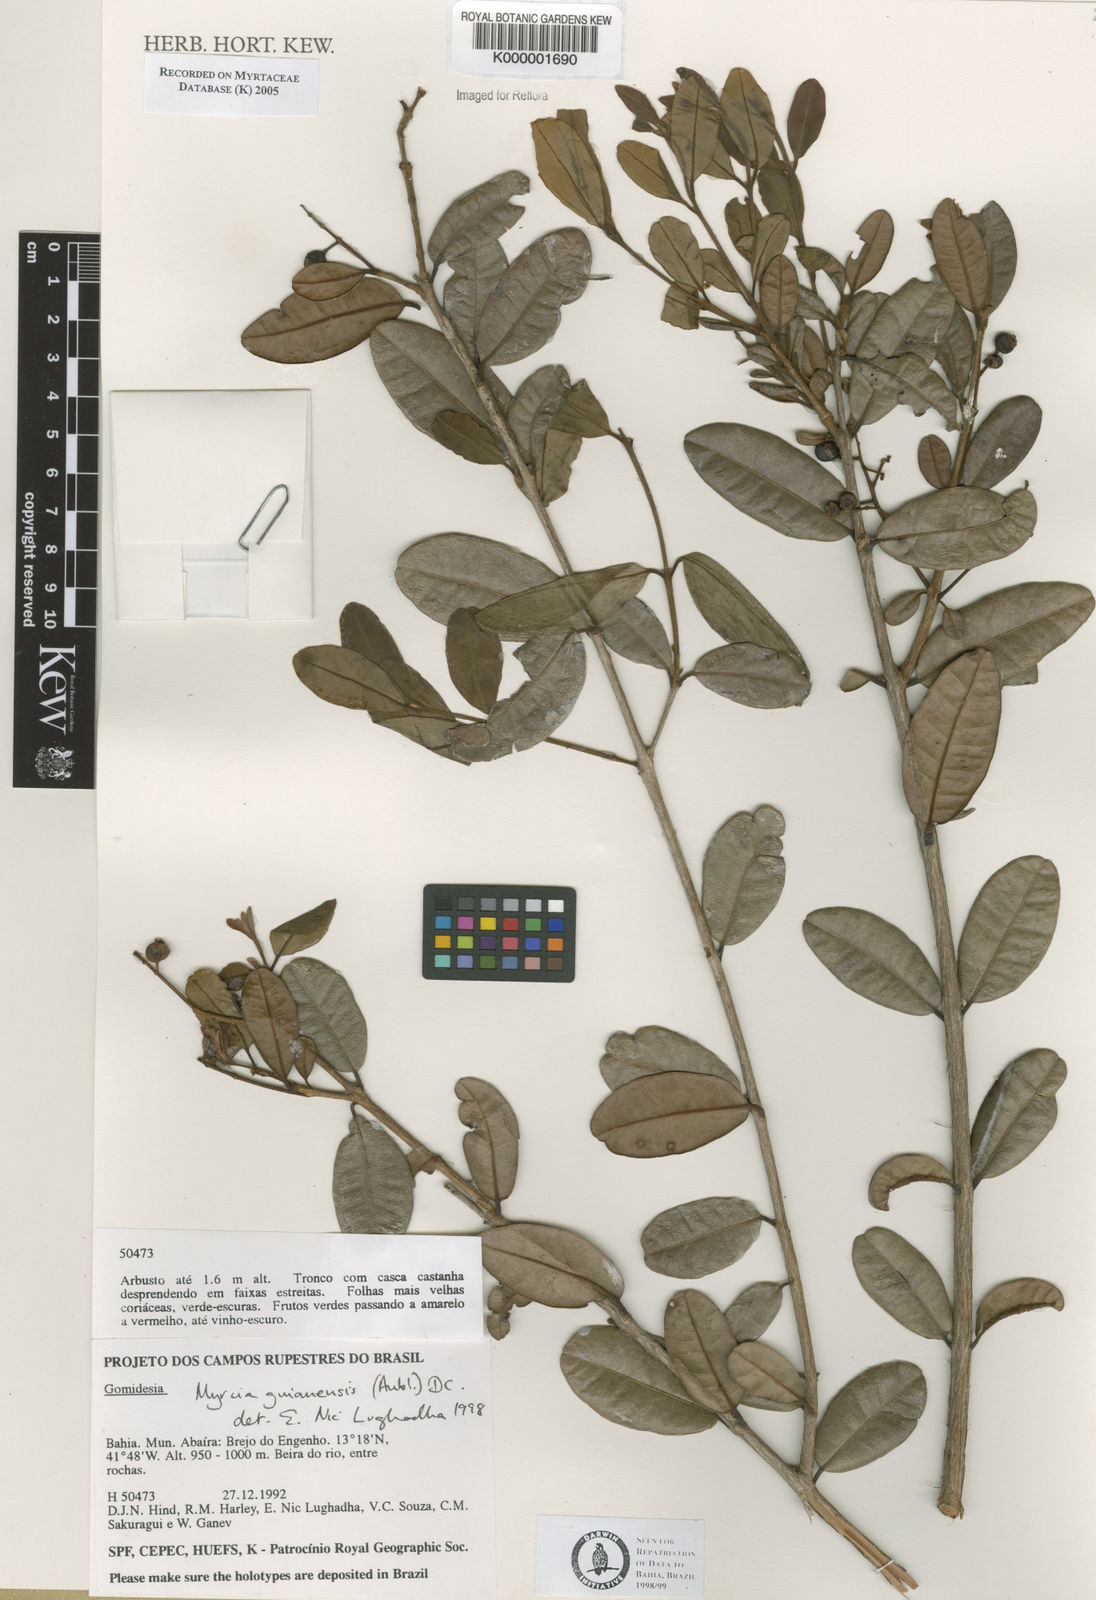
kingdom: Plantae
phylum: Tracheophyta
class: Magnoliopsida
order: Myrtales
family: Myrtaceae
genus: Myrcia
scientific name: Myrcia guianensis
